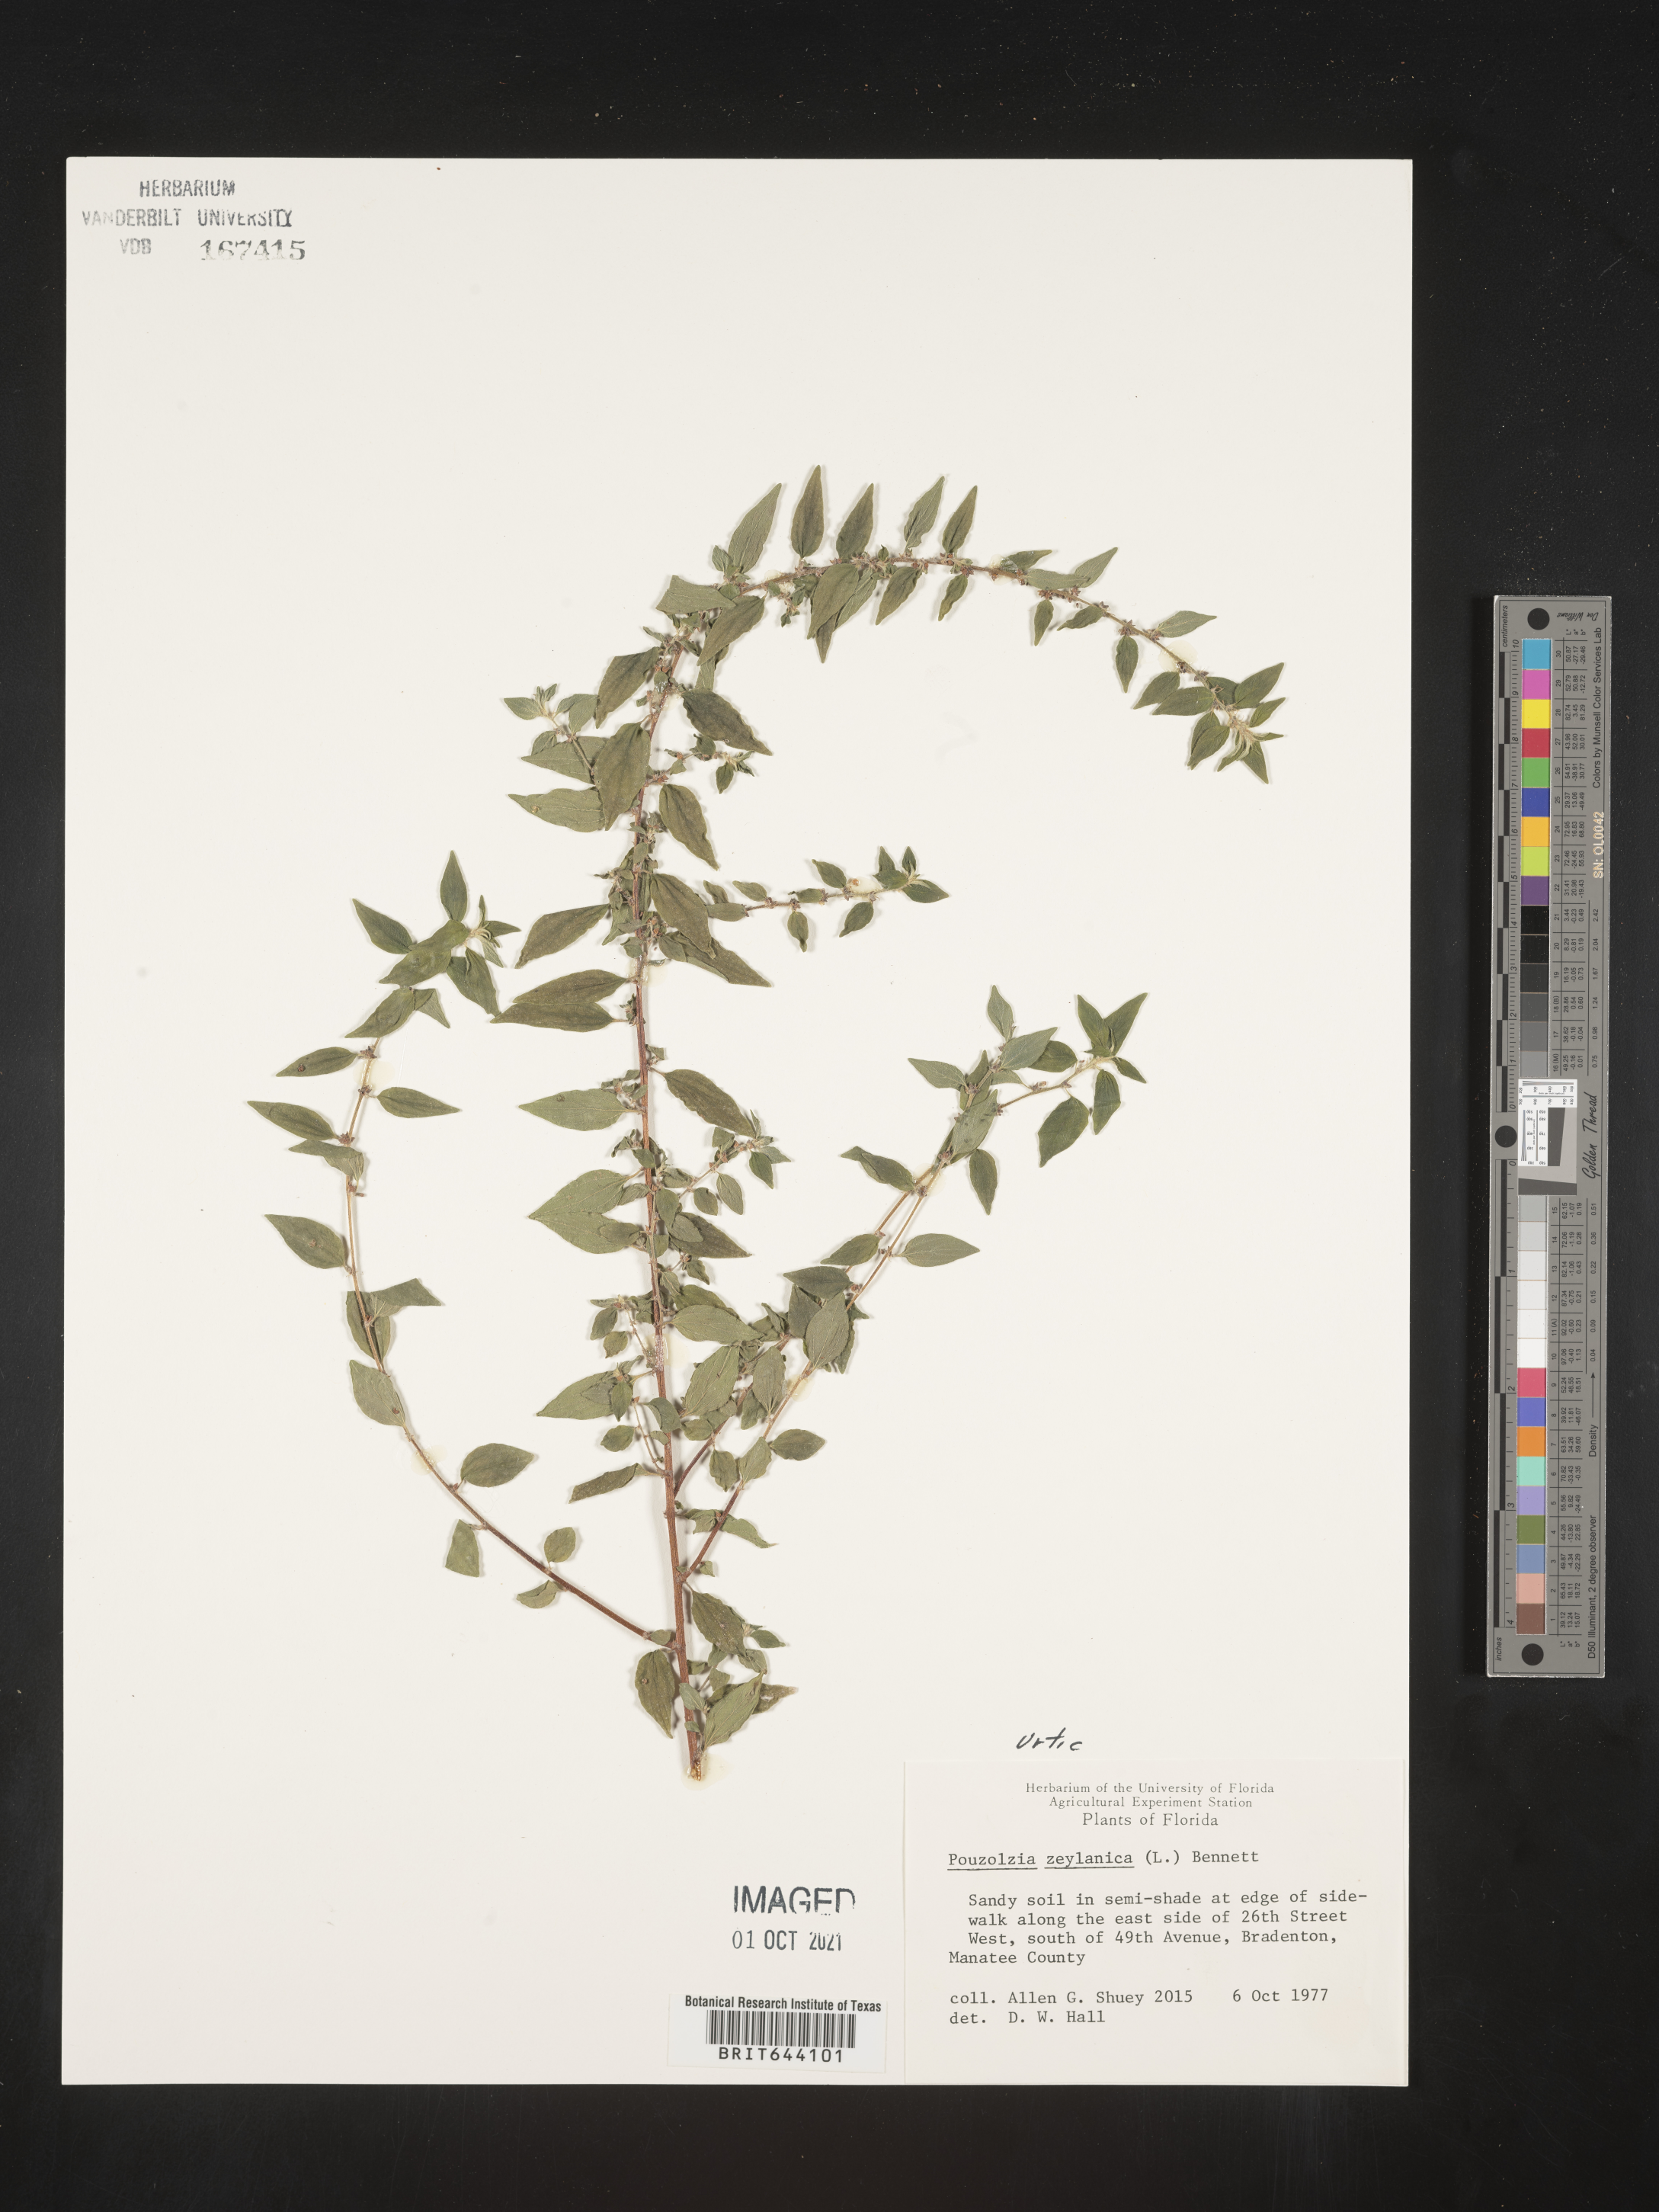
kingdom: Plantae
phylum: Tracheophyta
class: Magnoliopsida
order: Rosales
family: Urticaceae
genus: Pouzolzia
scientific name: Pouzolzia
